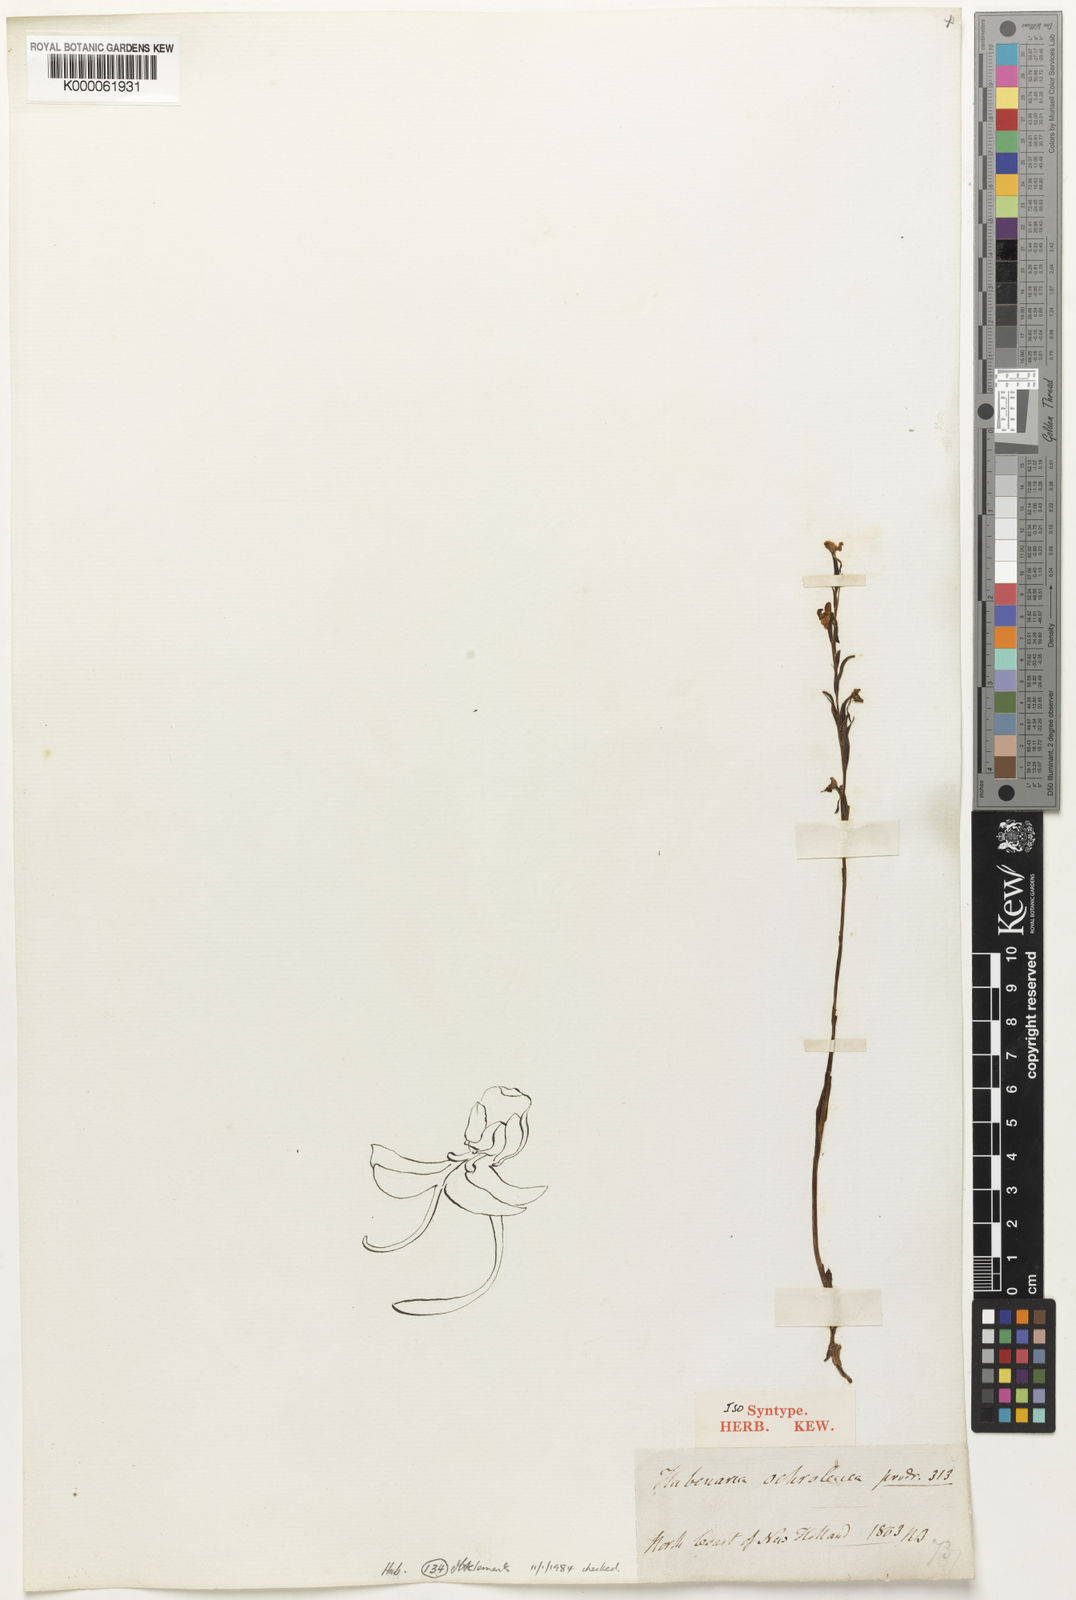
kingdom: Plantae
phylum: Tracheophyta
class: Liliopsida
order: Asparagales
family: Orchidaceae
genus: Habenaria
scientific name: Habenaria ochroleuca
